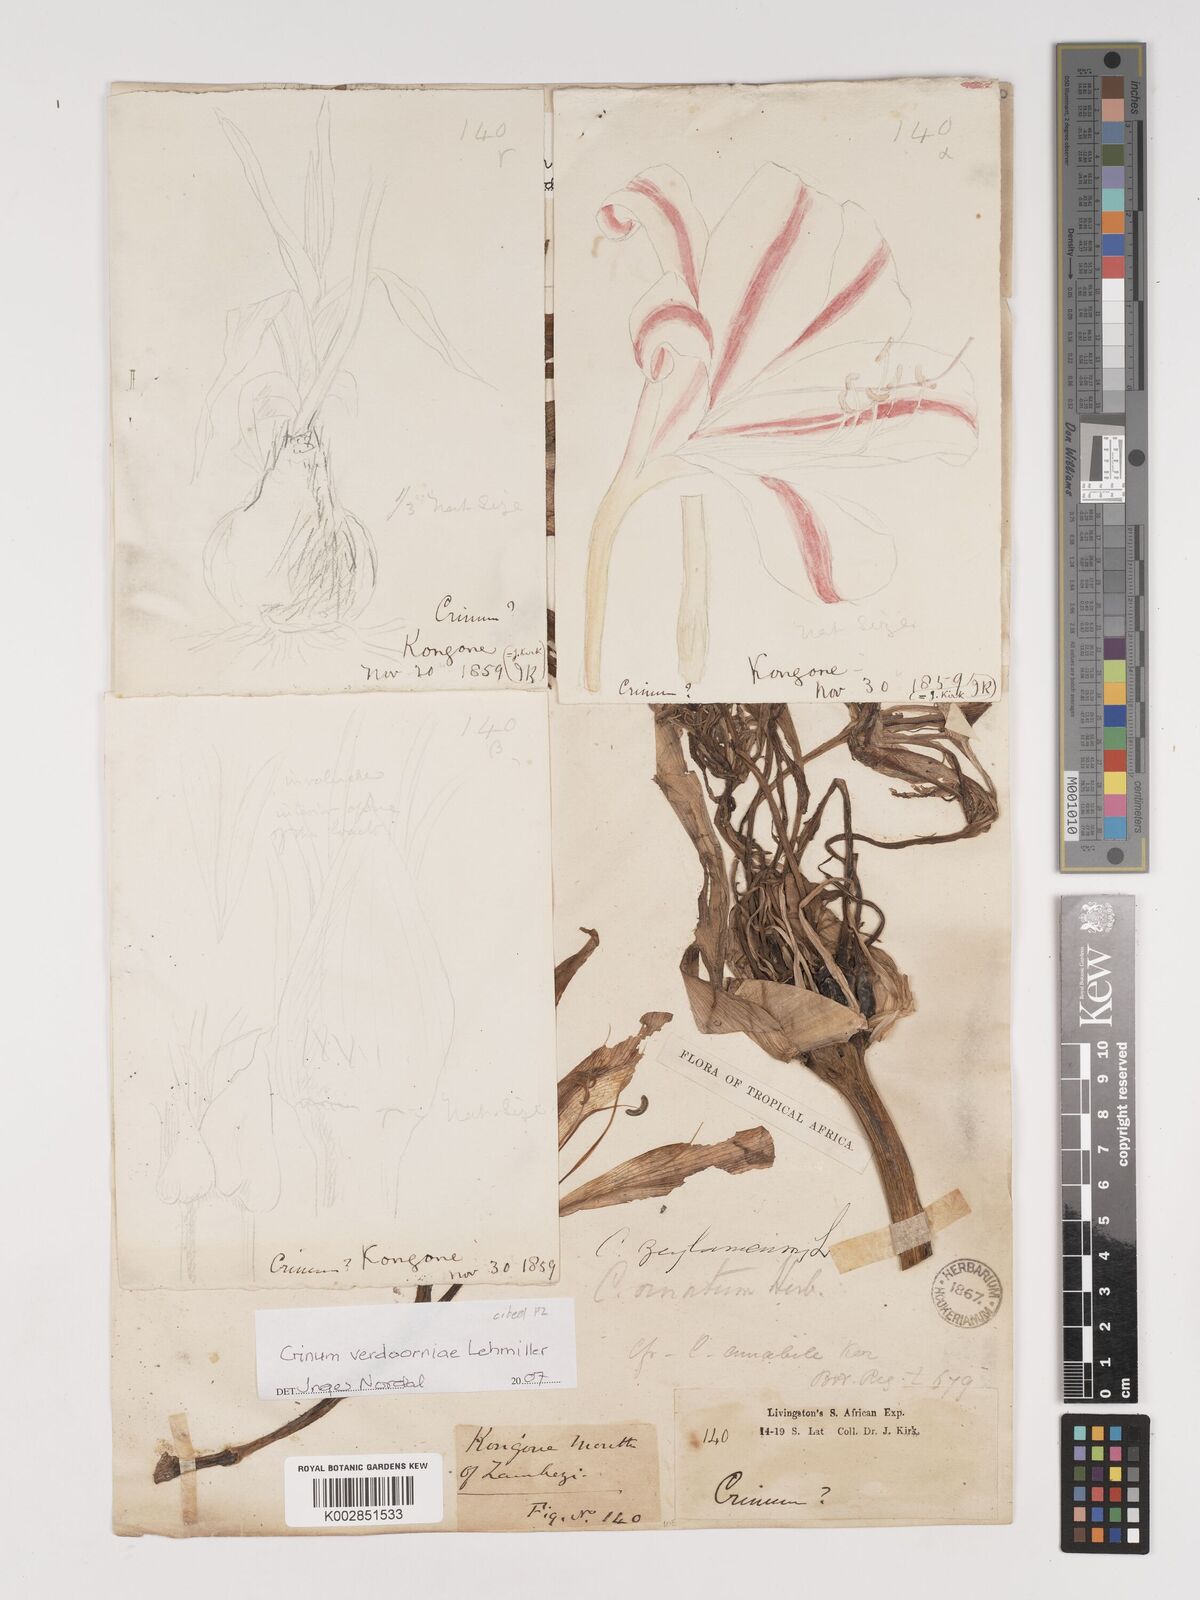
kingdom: Plantae
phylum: Tracheophyta
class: Liliopsida
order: Asparagales
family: Amaryllidaceae
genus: Crinum
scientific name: Crinum verdoorniae
